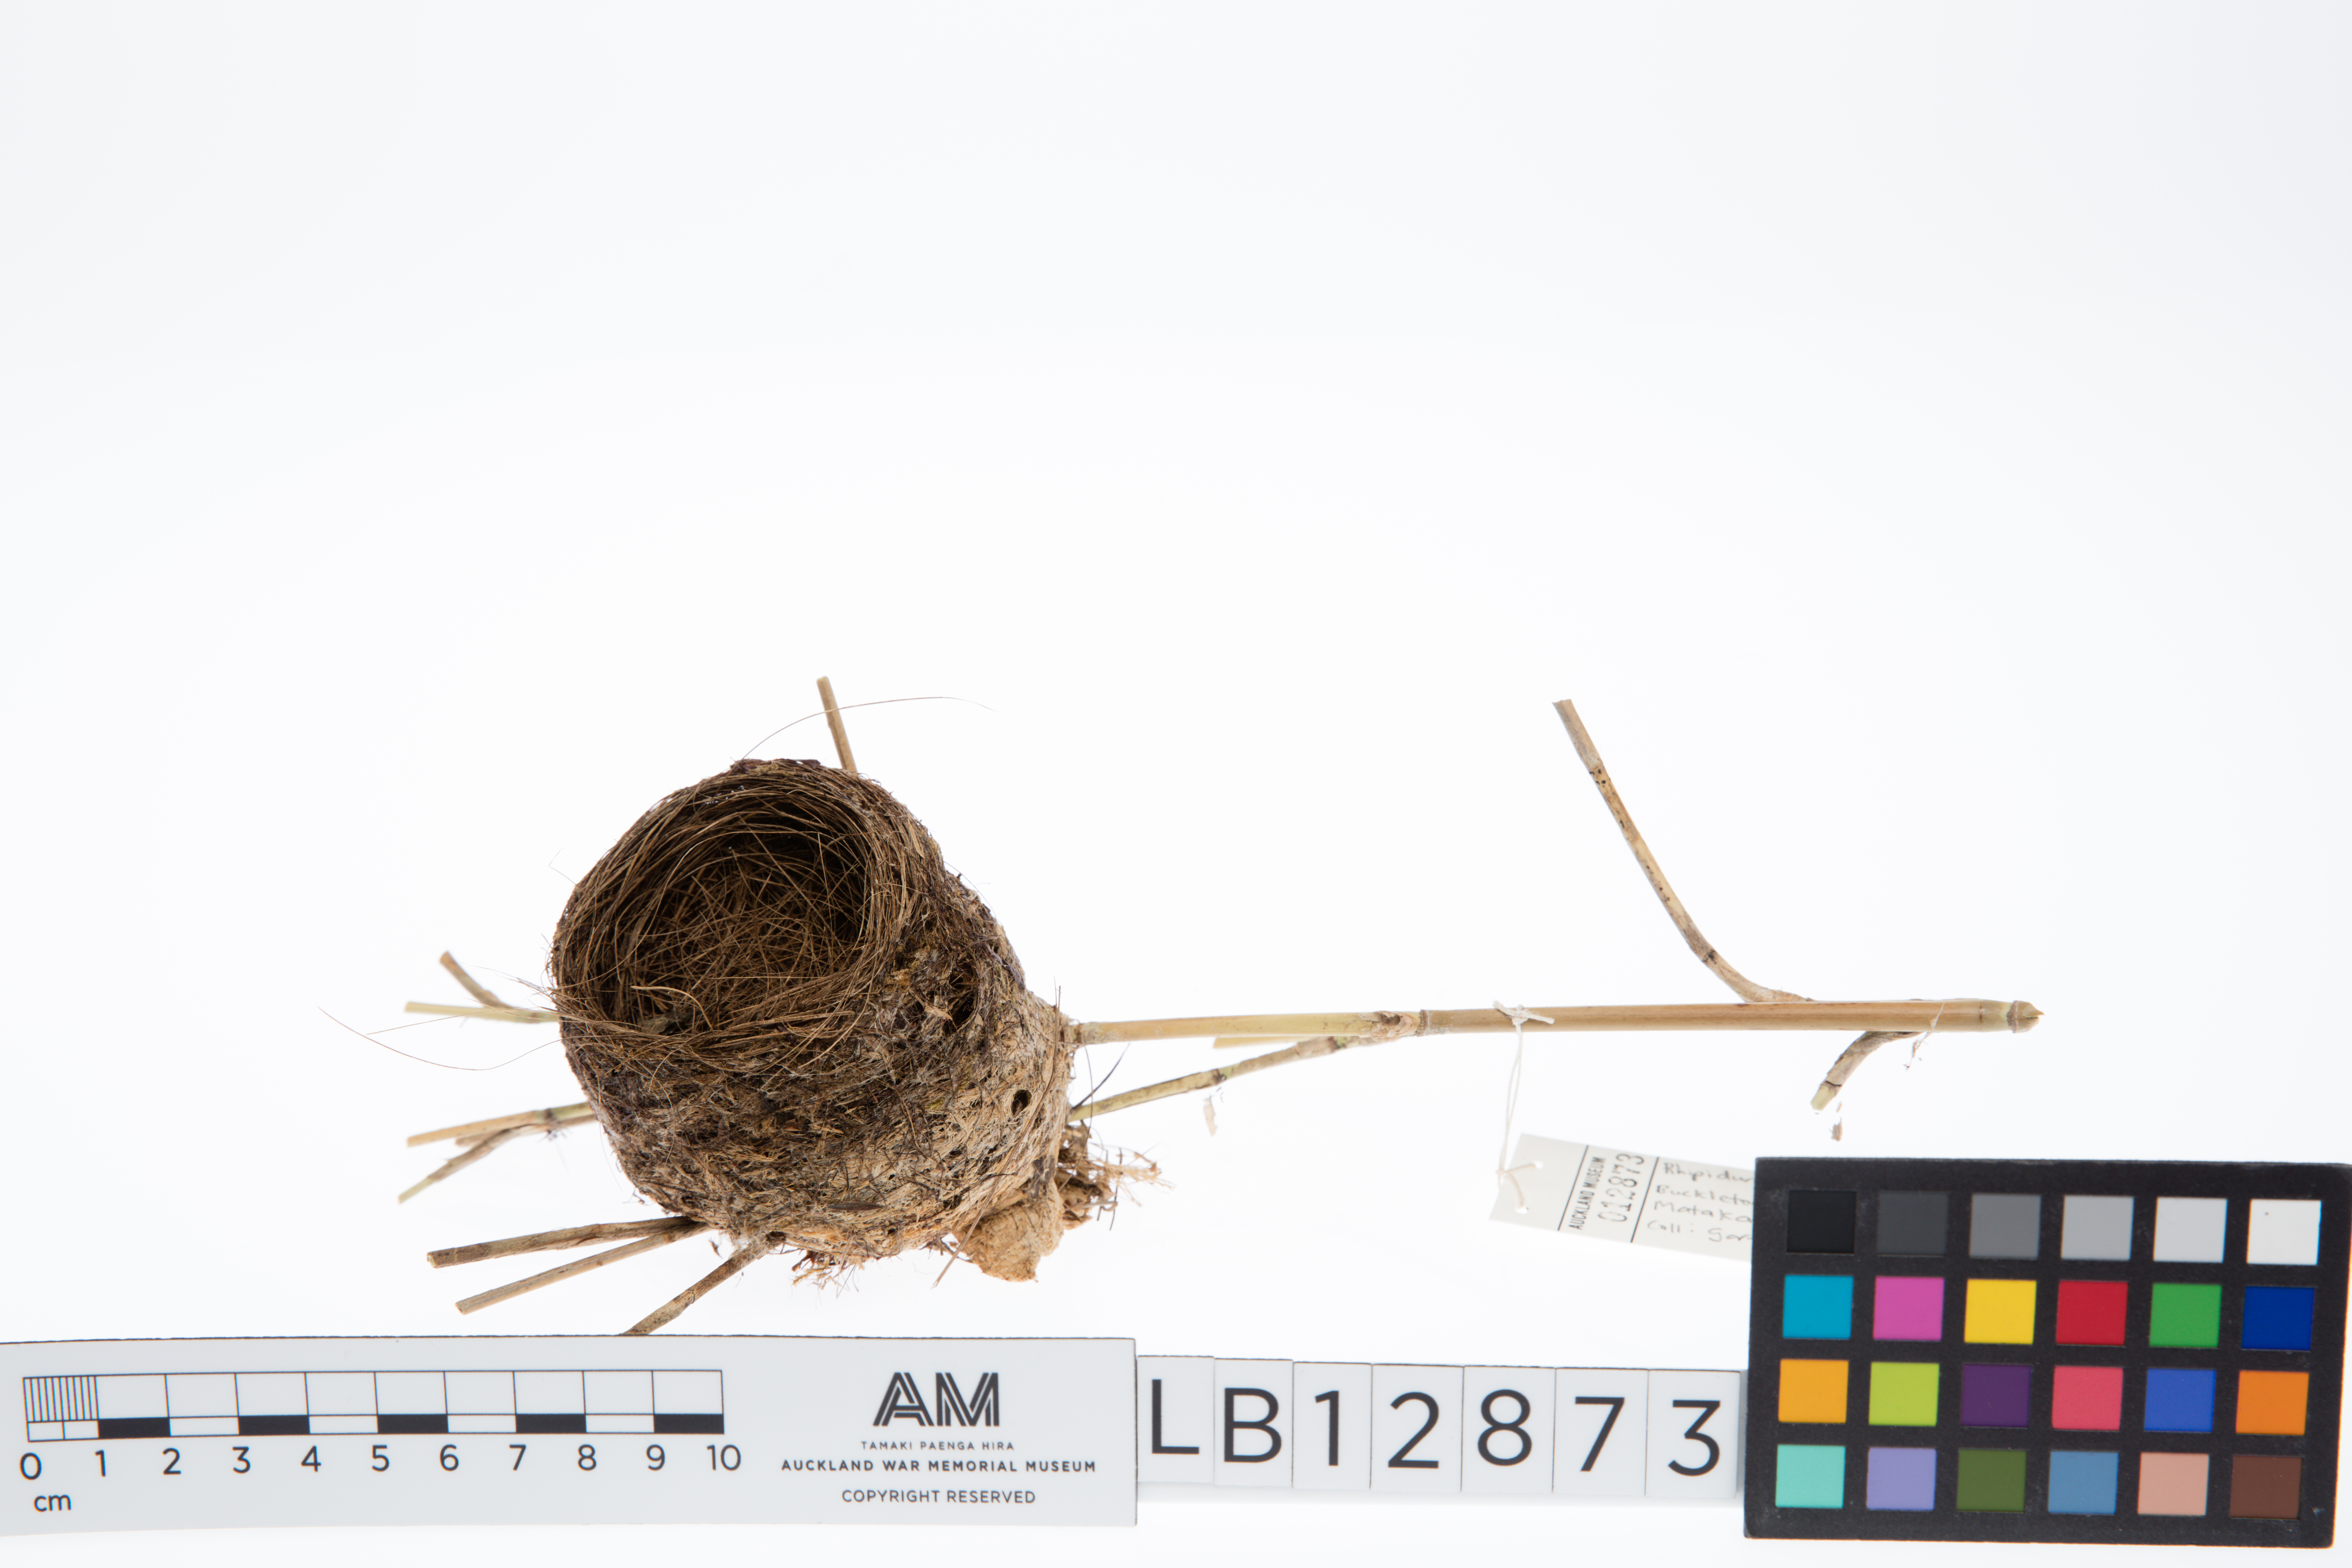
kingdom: Animalia
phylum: Chordata
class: Aves
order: Passeriformes
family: Rhipiduridae
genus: Rhipidura
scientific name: Rhipidura fuliginosa
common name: New zealand fantail
